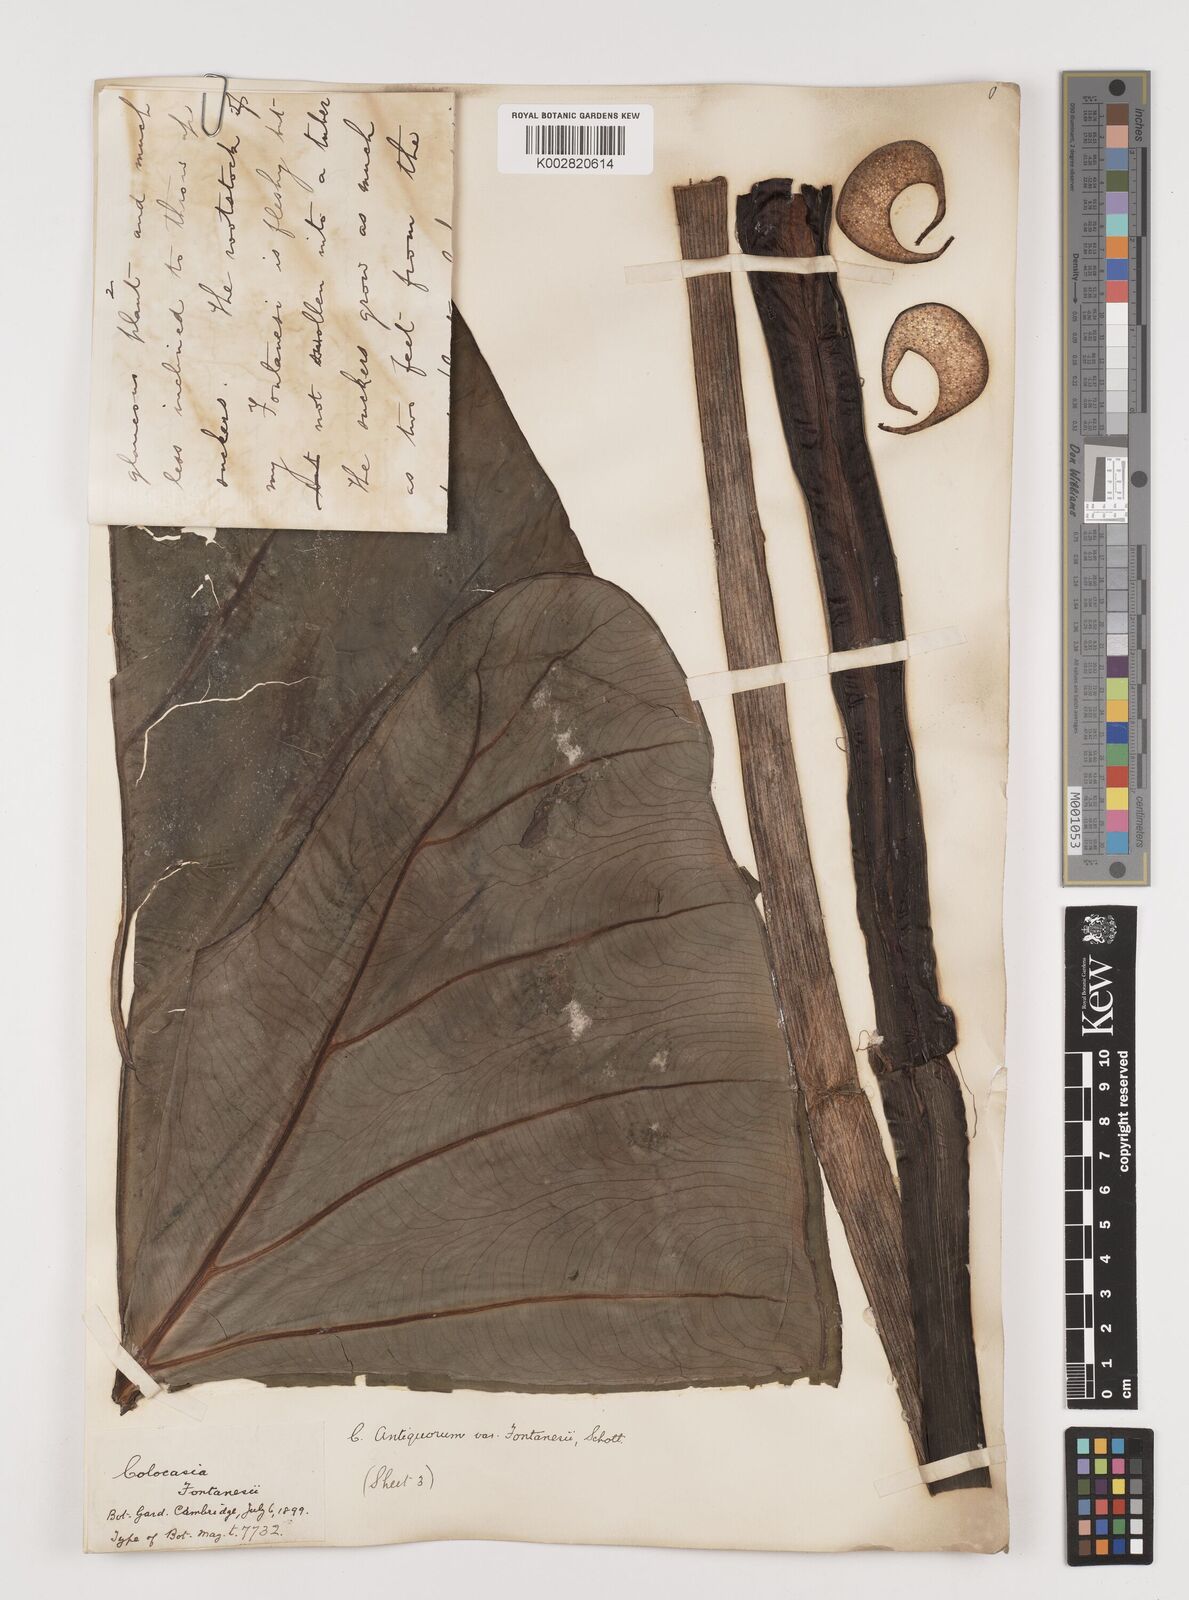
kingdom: Plantae
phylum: Tracheophyta
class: Liliopsida
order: Alismatales
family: Araceae
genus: Colocasia
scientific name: Colocasia esculenta
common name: Taro
